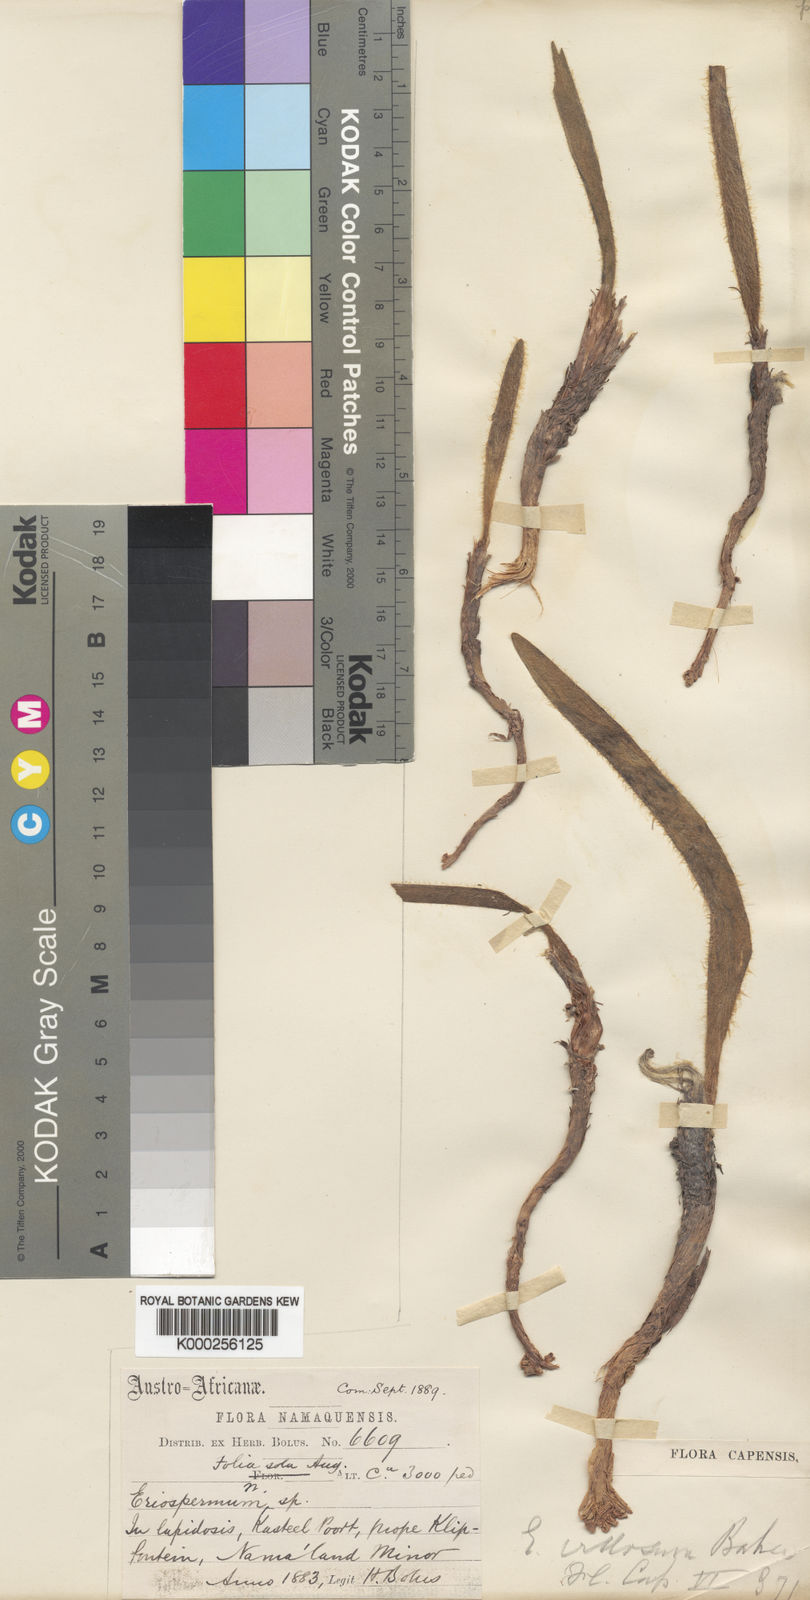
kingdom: Plantae
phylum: Tracheophyta
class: Liliopsida
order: Asparagales
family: Asparagaceae
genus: Eriospermum
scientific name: Eriospermum villosum
